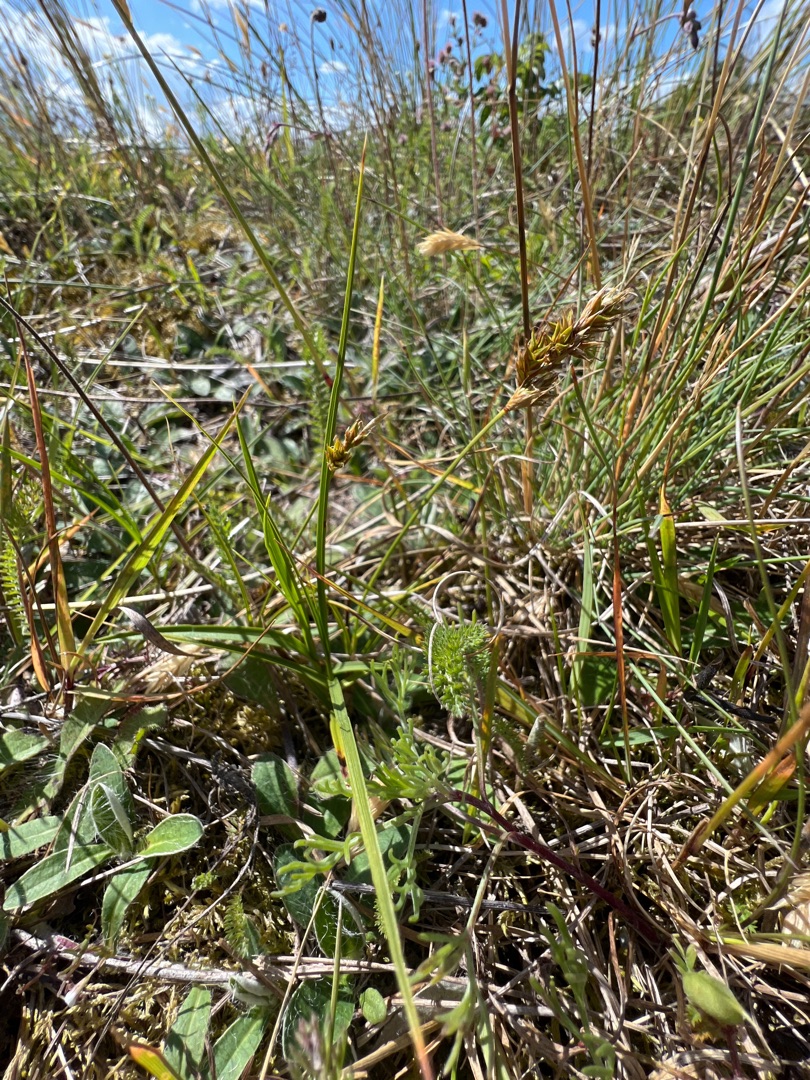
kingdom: Plantae
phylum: Tracheophyta
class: Liliopsida
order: Poales
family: Cyperaceae
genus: Carex
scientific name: Carex arenaria
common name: Sand-star
